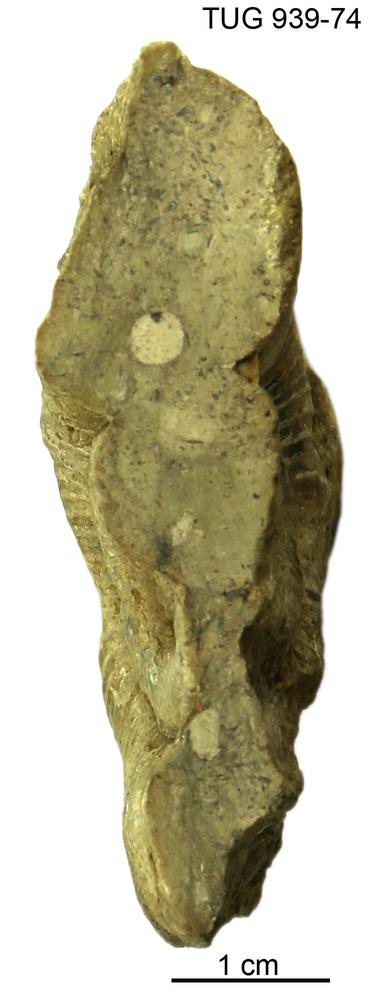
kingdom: Animalia
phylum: Mollusca
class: Cephalopoda
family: Trocholitidae
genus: Discoceras
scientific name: Discoceras Rectanguloceras balaschovi
